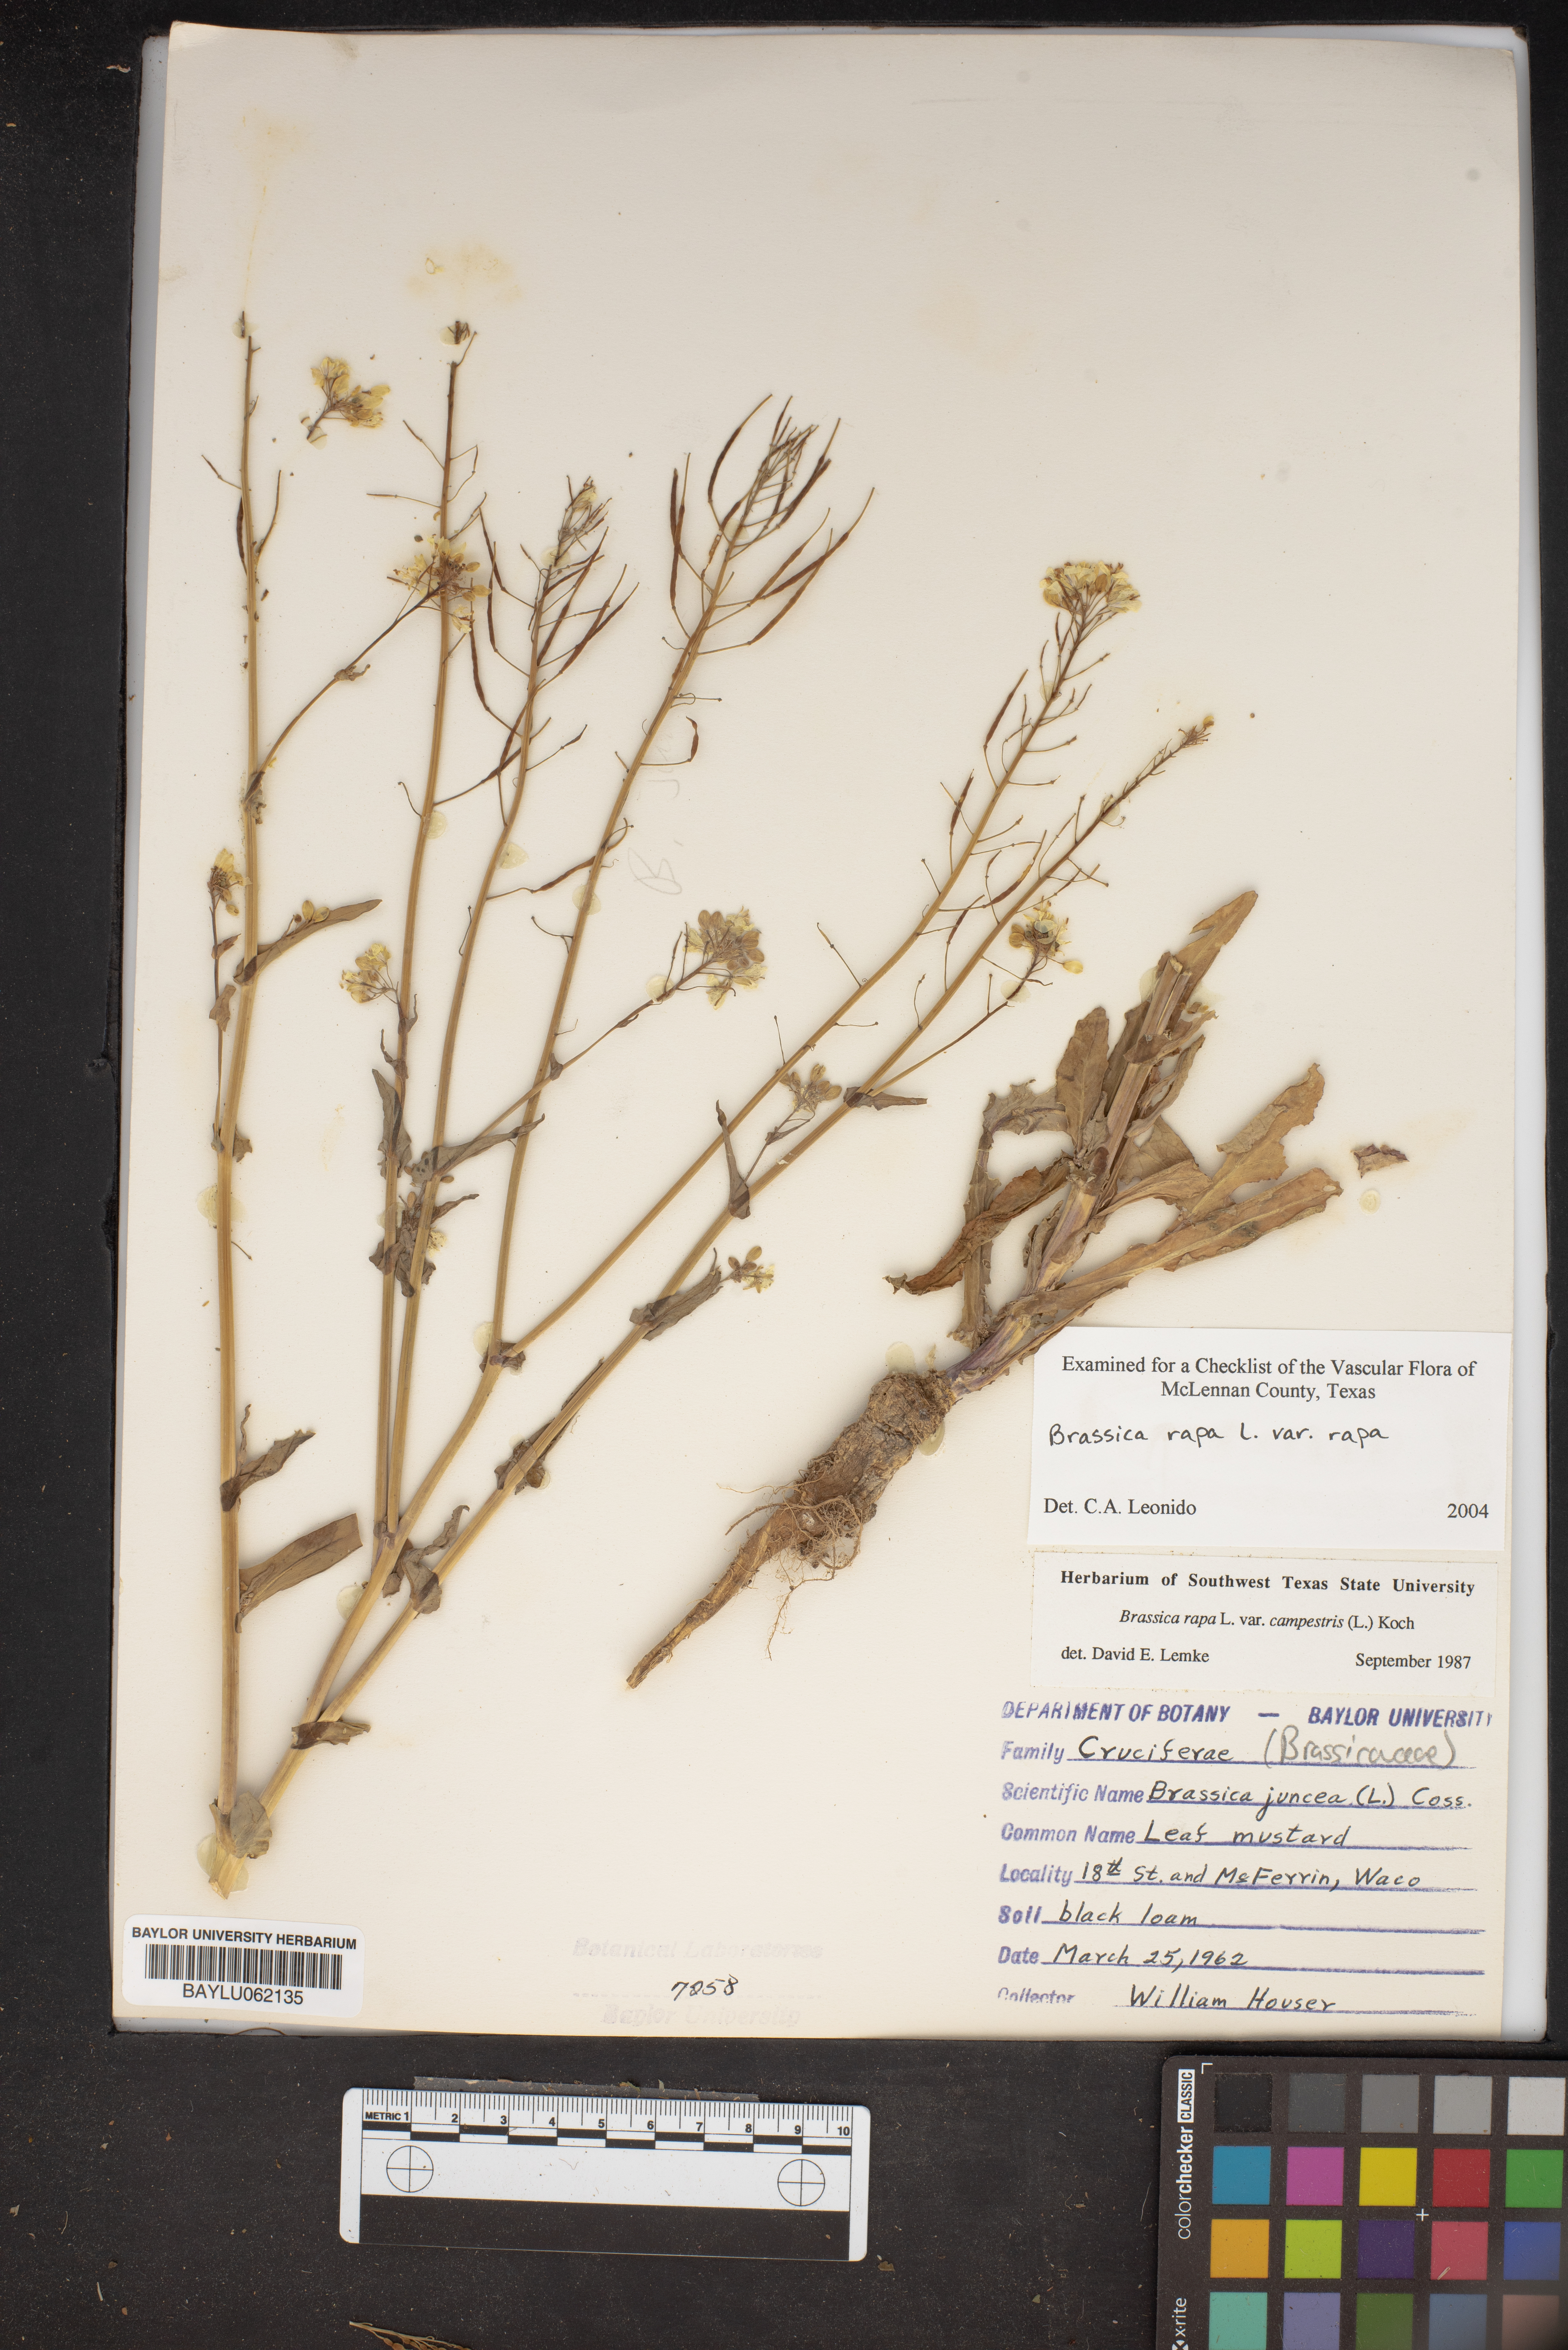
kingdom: Plantae
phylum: Tracheophyta
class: Magnoliopsida
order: Brassicales
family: Brassicaceae
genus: Brassica
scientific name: Brassica rapa
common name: Field mustard
